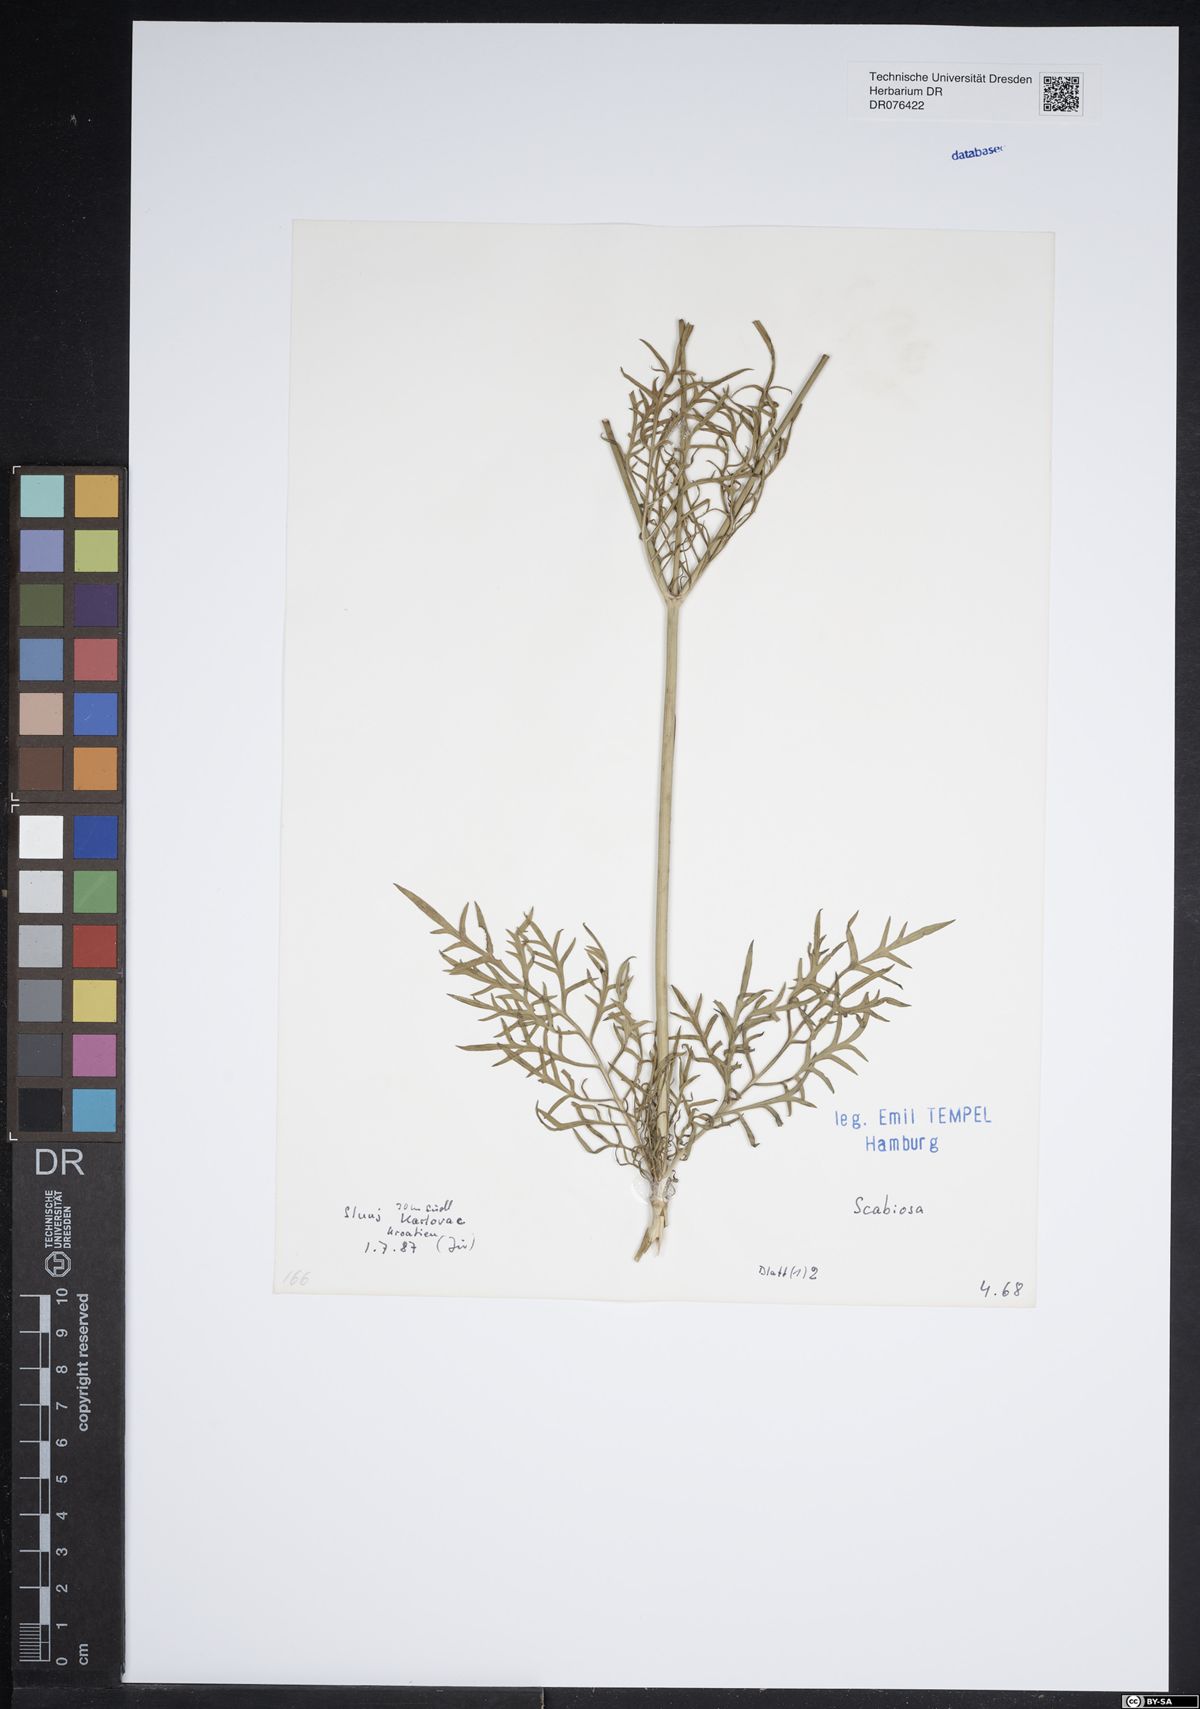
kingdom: Plantae
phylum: Tracheophyta
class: Magnoliopsida
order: Dipsacales
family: Caprifoliaceae
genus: Scabiosa
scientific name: Scabiosa
